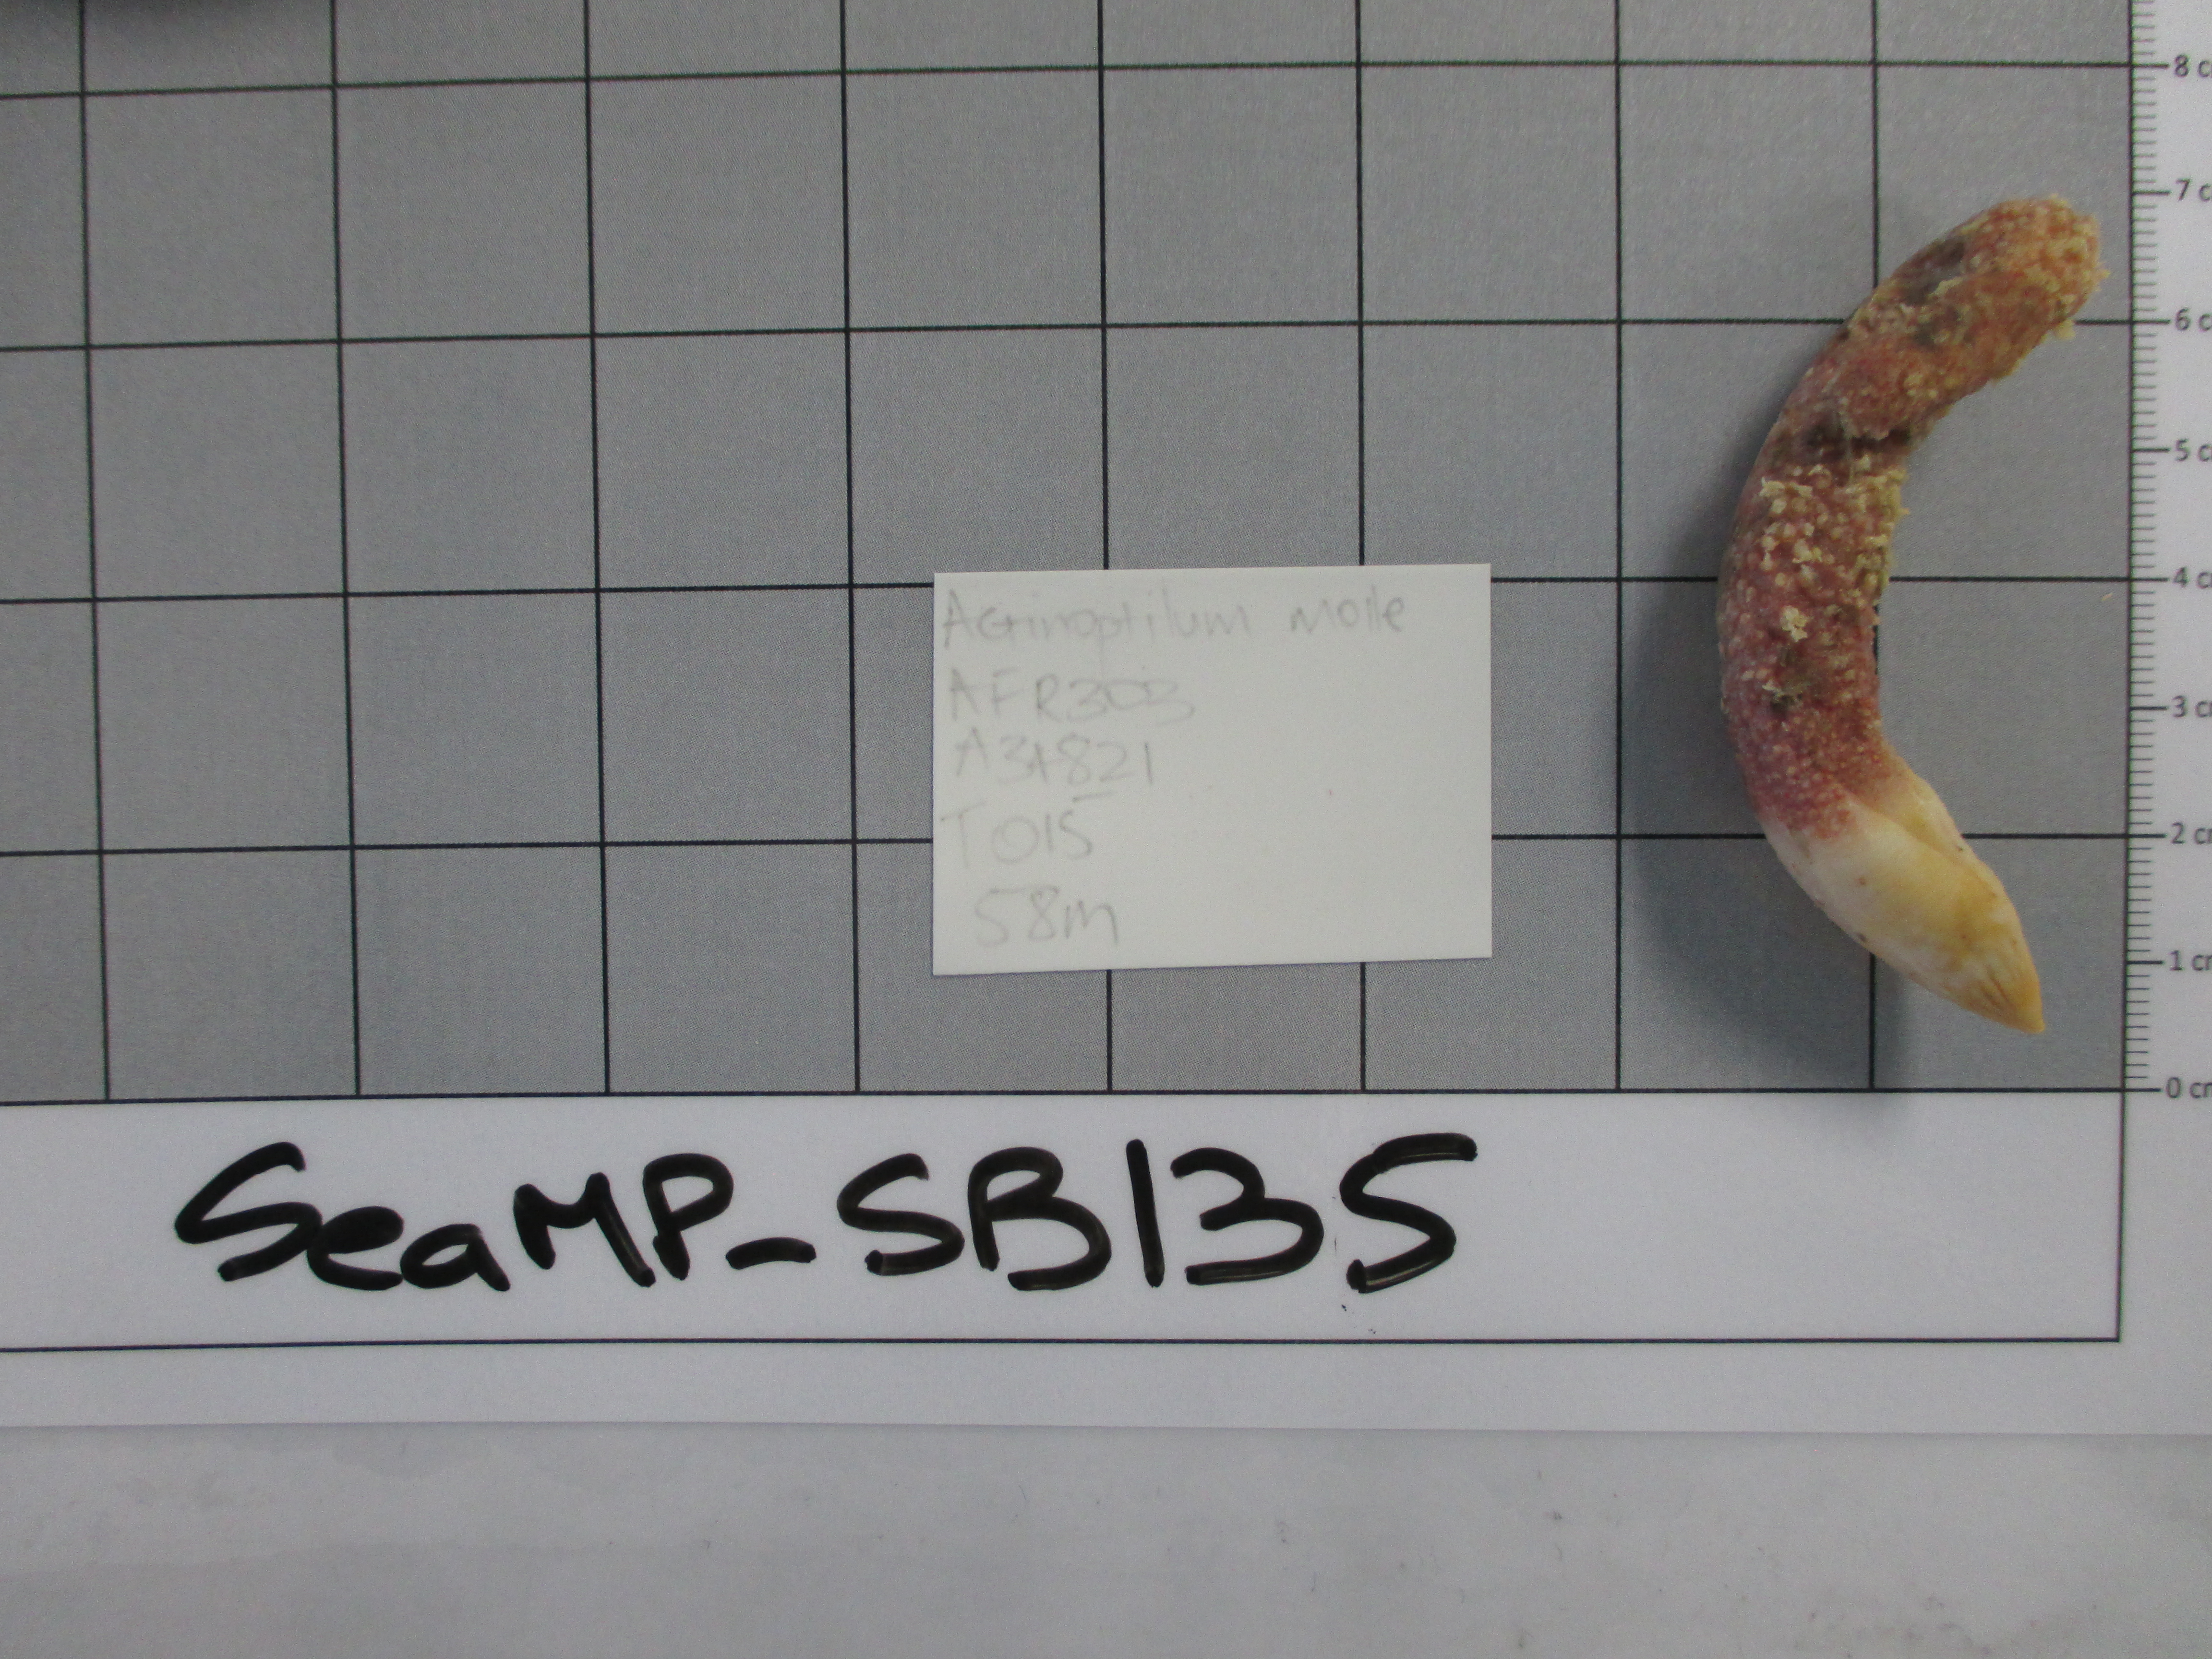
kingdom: Animalia
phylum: Cnidaria
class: Anthozoa
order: Scleralcyonacea
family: Echinoptilidae
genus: Actinoptilum
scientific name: Actinoptilum molle
